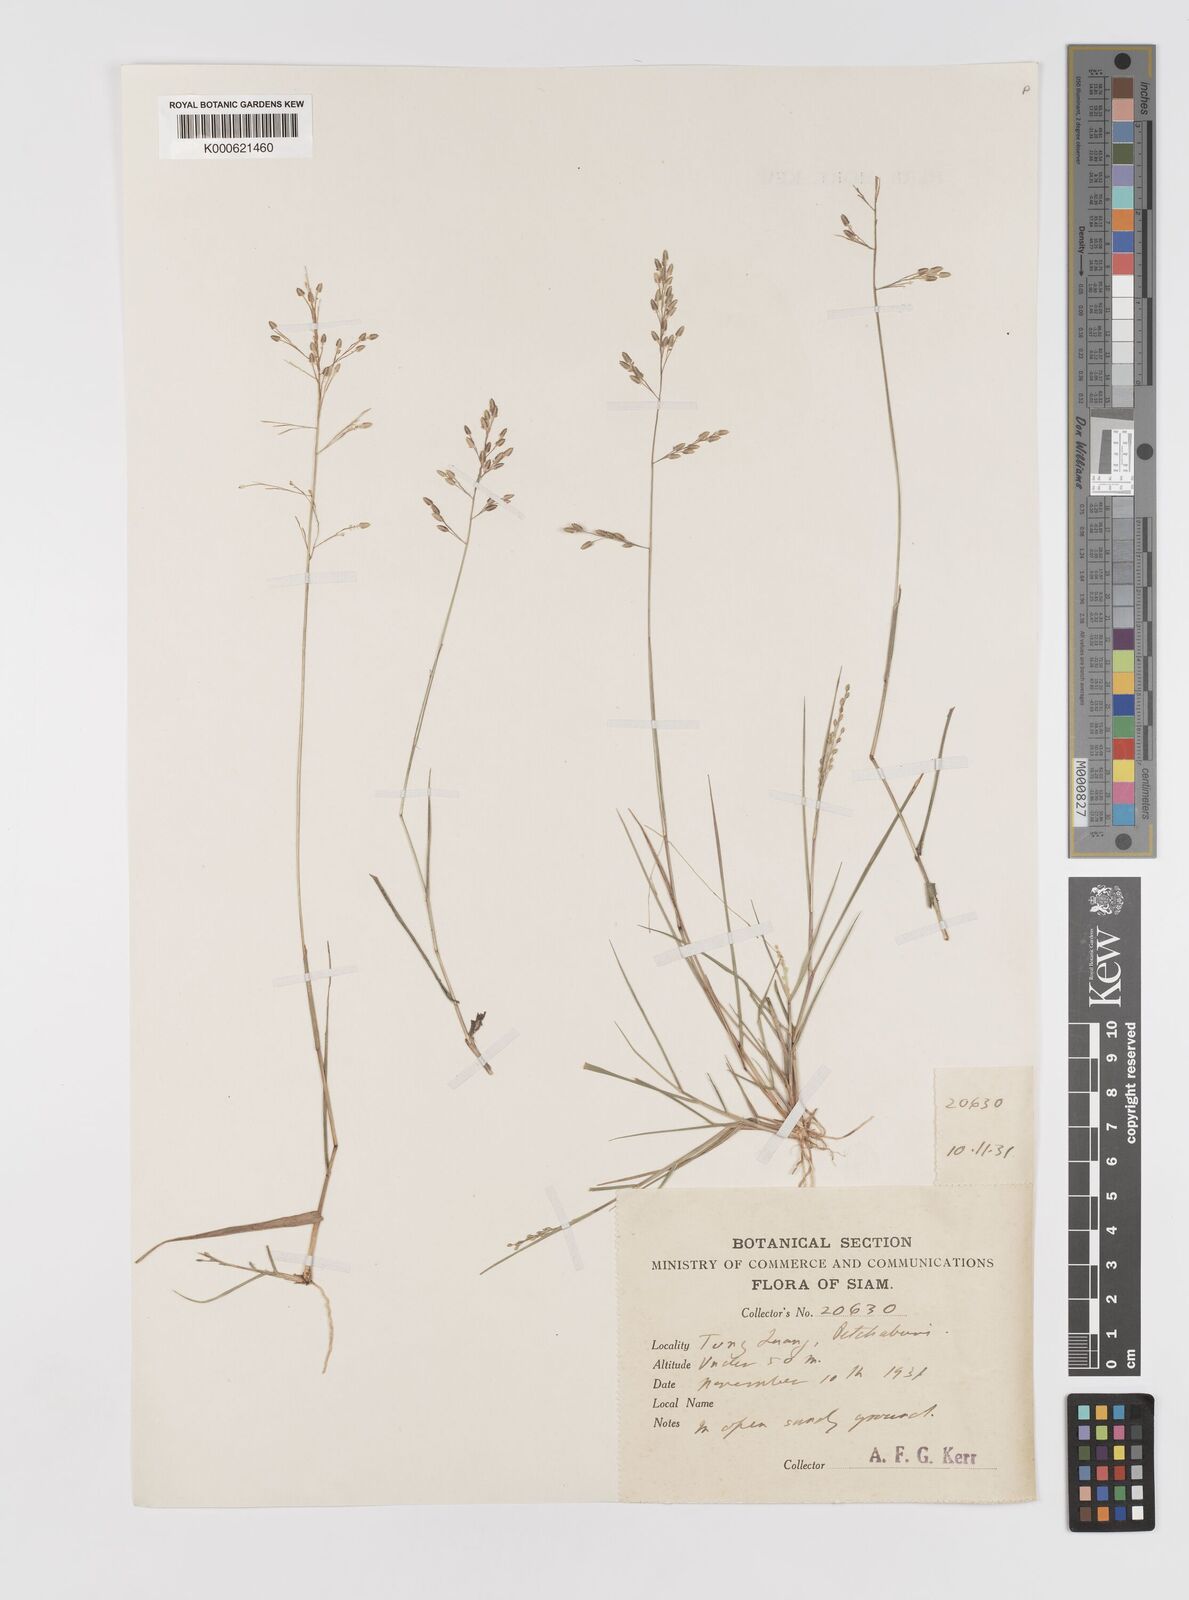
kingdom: Plantae
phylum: Tracheophyta
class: Liliopsida
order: Poales
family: Poaceae
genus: Eragrostis
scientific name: Eragrostis montana
